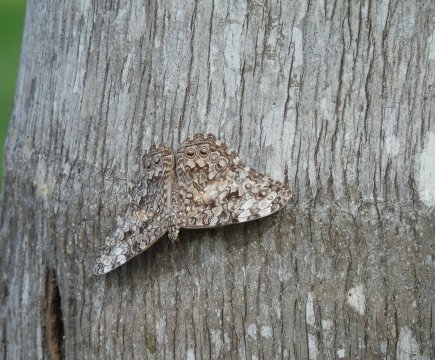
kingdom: Animalia
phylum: Arthropoda
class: Insecta
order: Lepidoptera
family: Nymphalidae
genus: Hamadryas
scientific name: Hamadryas februa
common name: Gray Cracker
